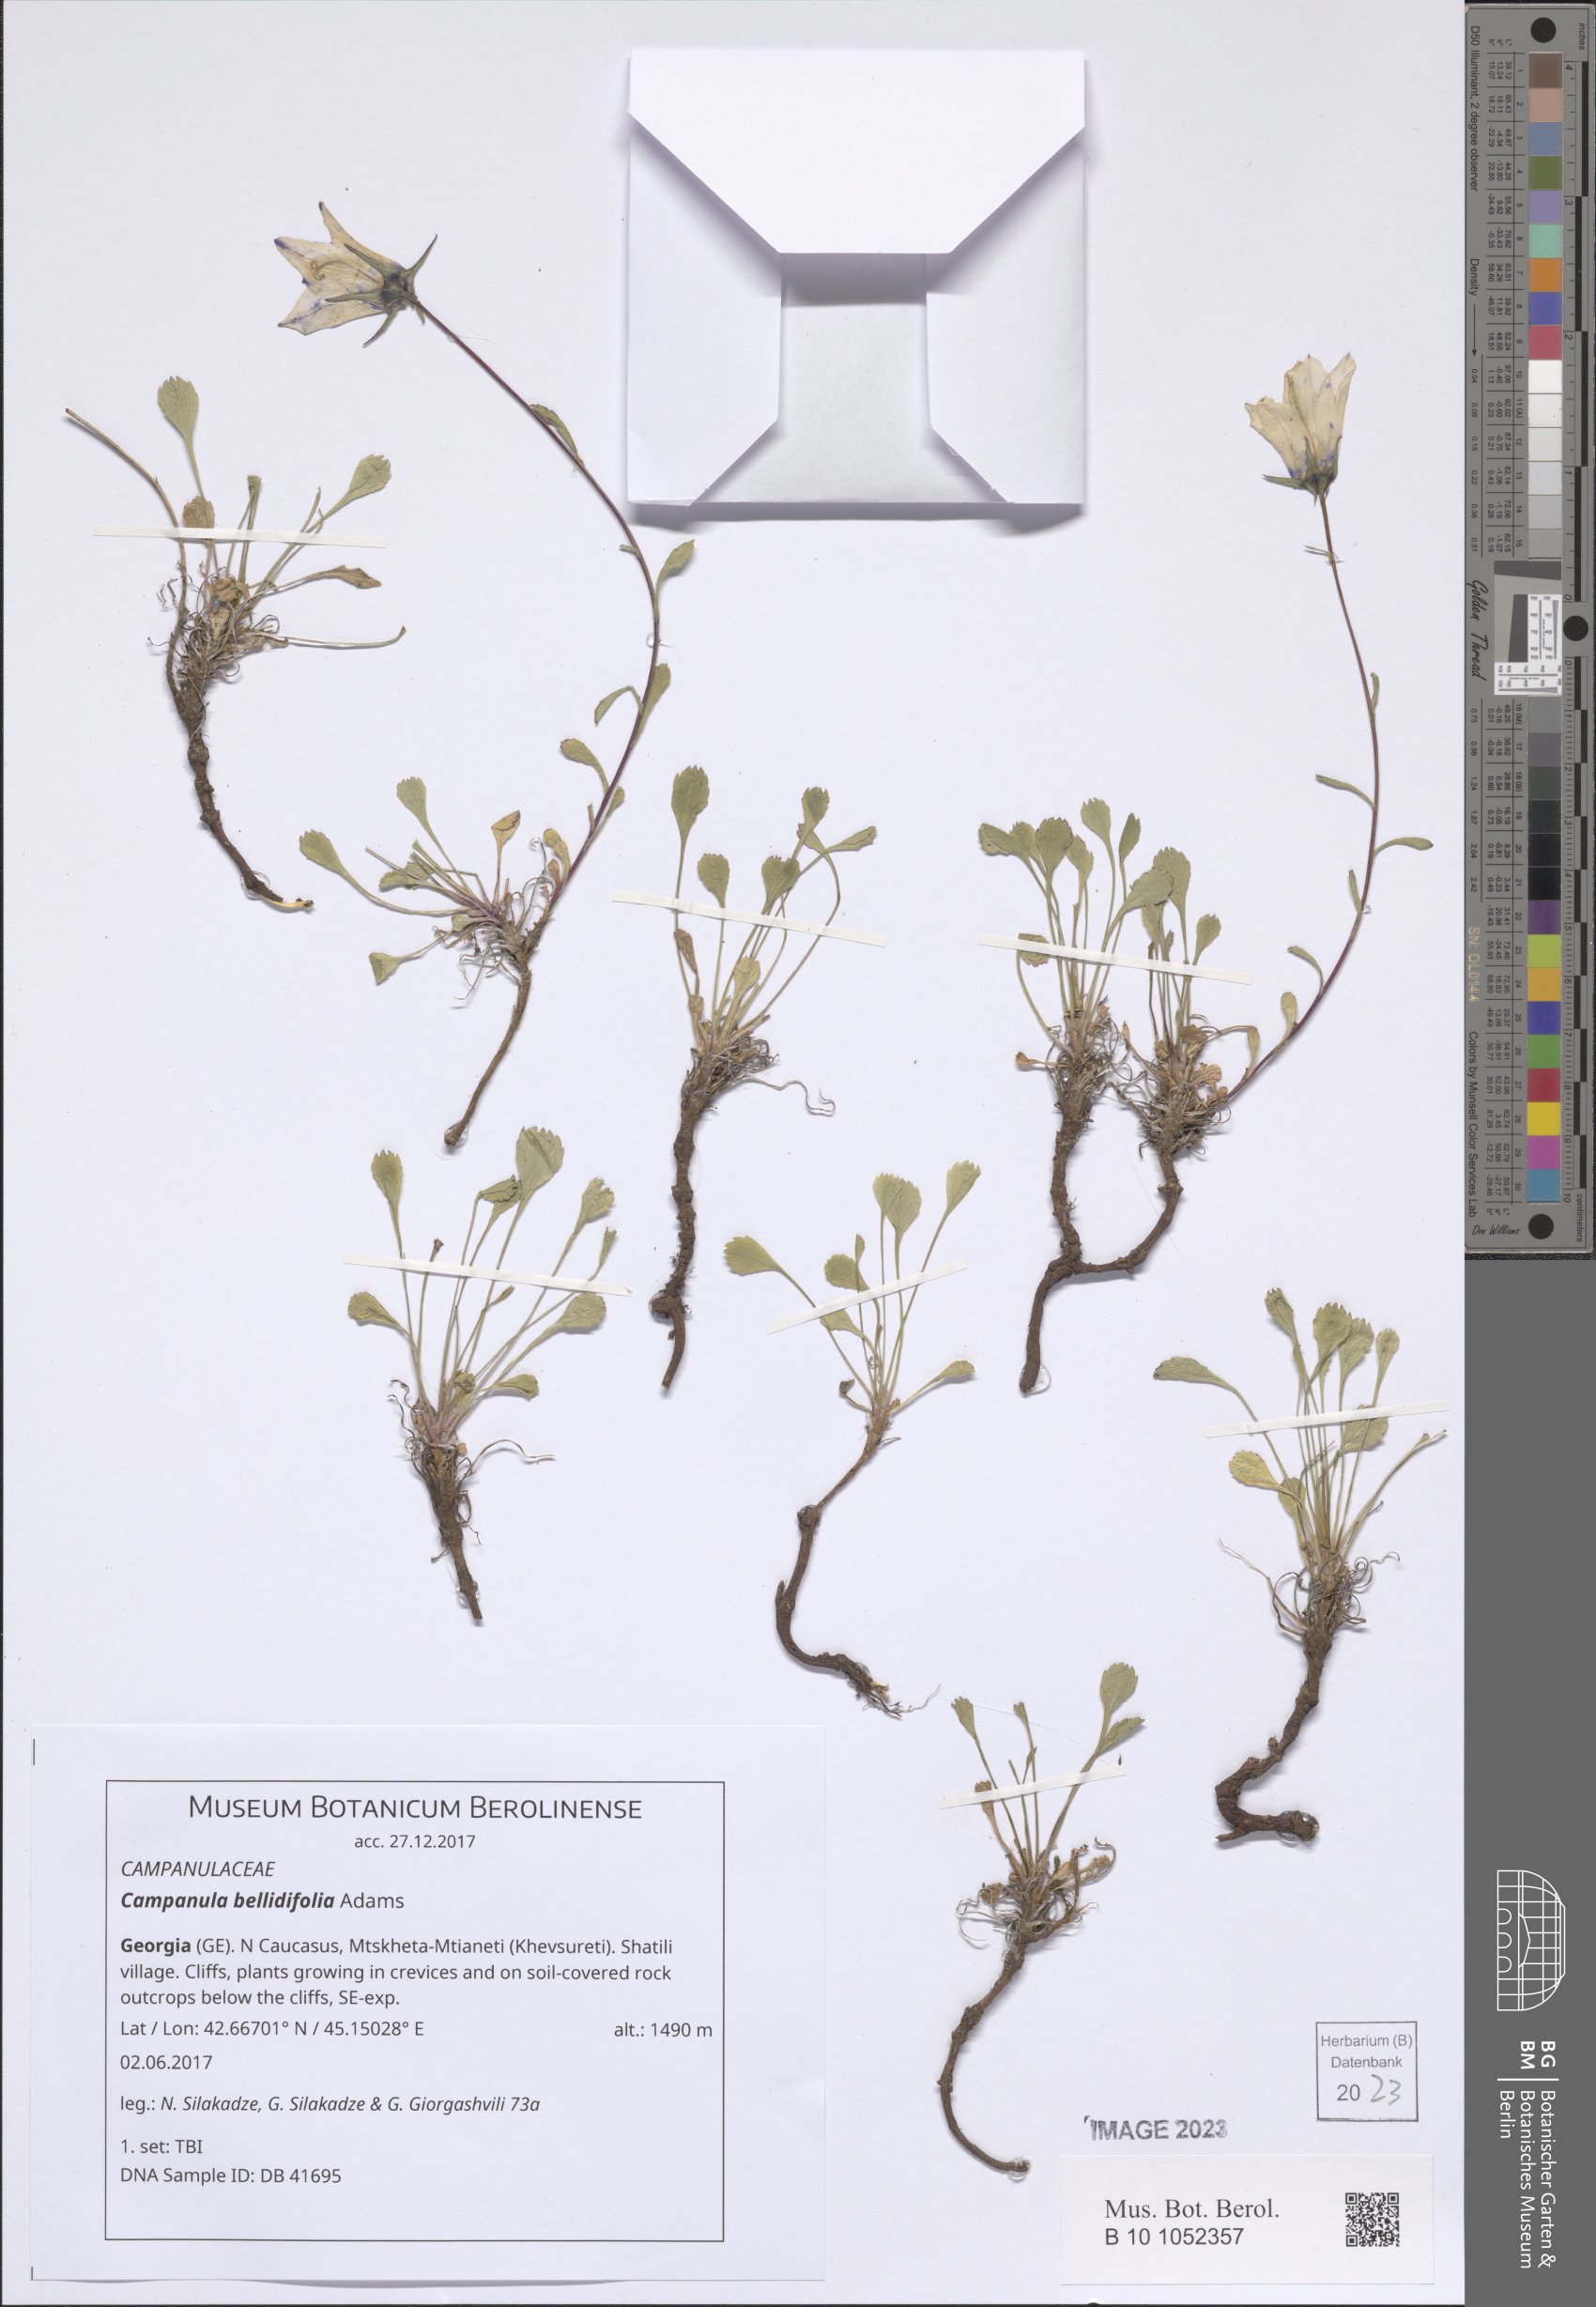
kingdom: Plantae
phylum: Tracheophyta
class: Magnoliopsida
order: Asterales
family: Campanulaceae
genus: Campanula
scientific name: Campanula bellidifolia
